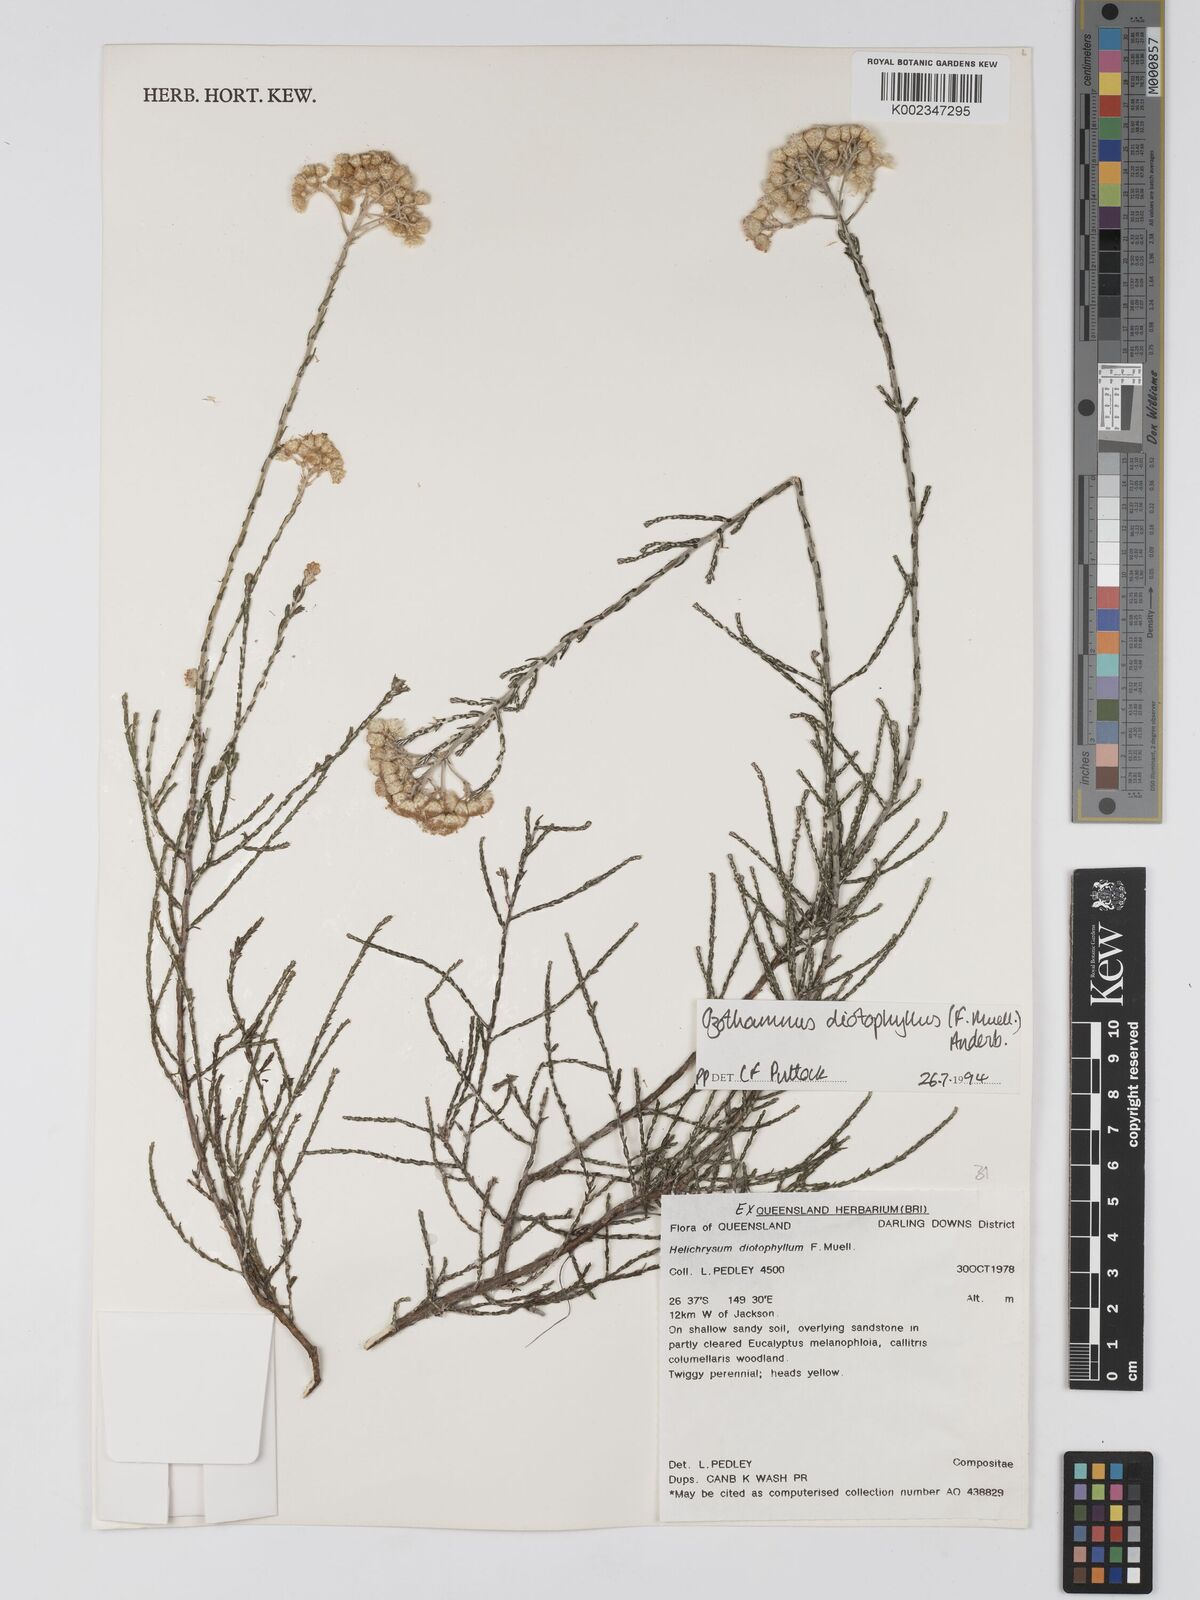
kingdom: Plantae
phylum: Tracheophyta
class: Magnoliopsida
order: Asterales
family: Asteraceae
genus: Ozothamnus
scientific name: Ozothamnus diotophyllus
